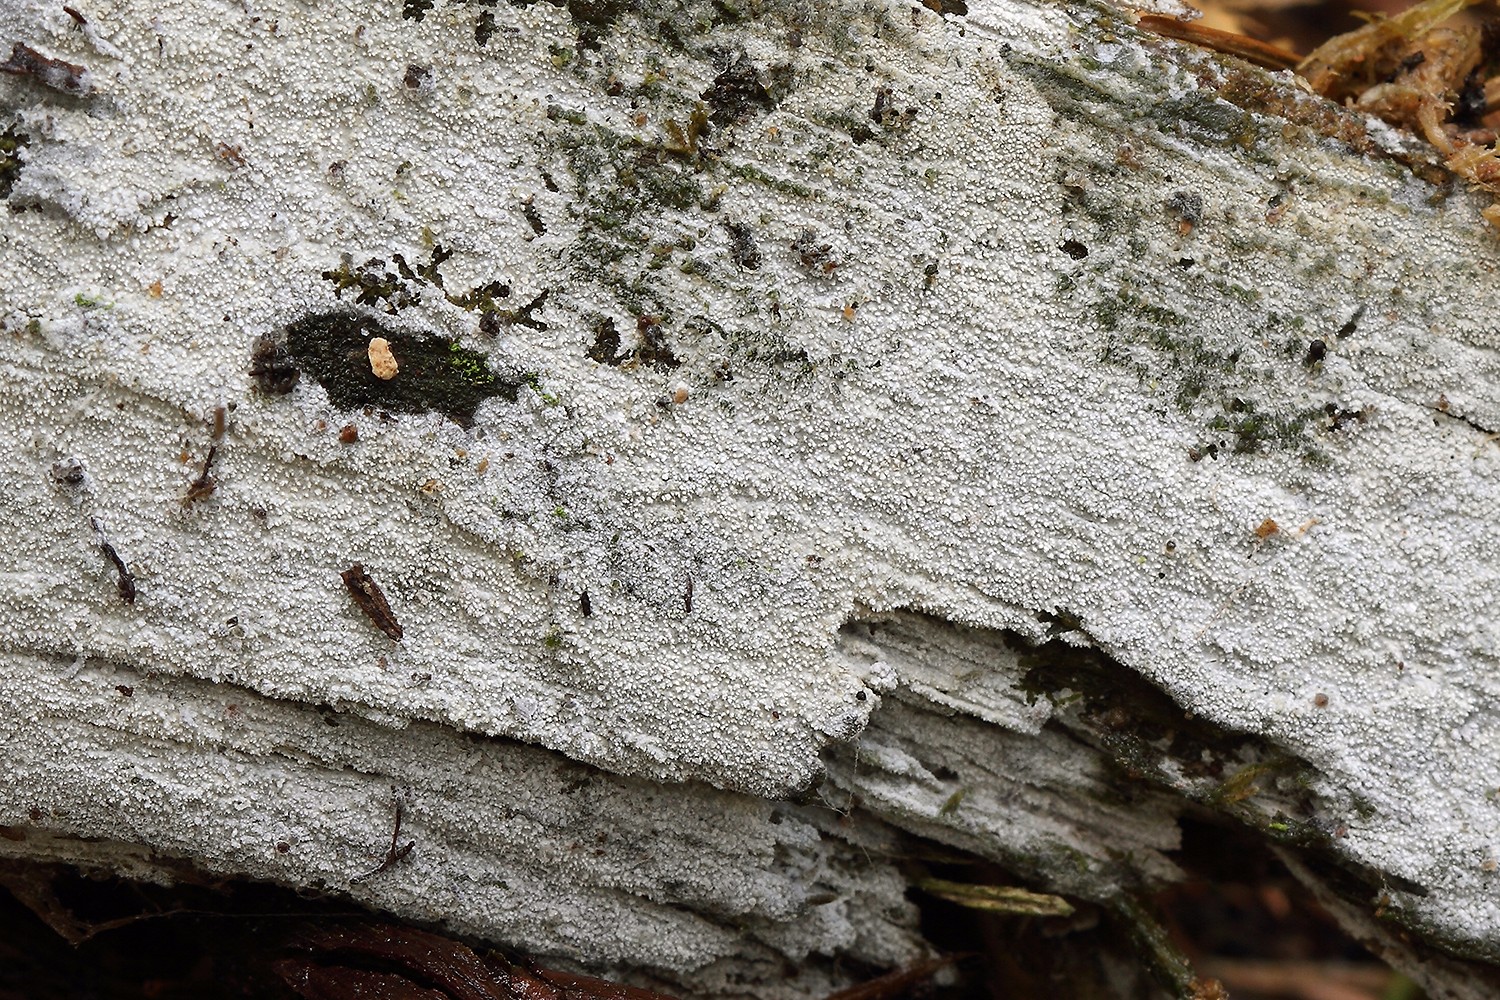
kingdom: Fungi
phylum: Basidiomycota
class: Agaricomycetes
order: Hymenochaetales
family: Schizoporaceae
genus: Xylodon
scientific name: Xylodon brevisetus
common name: tætvortet tandsvamp
